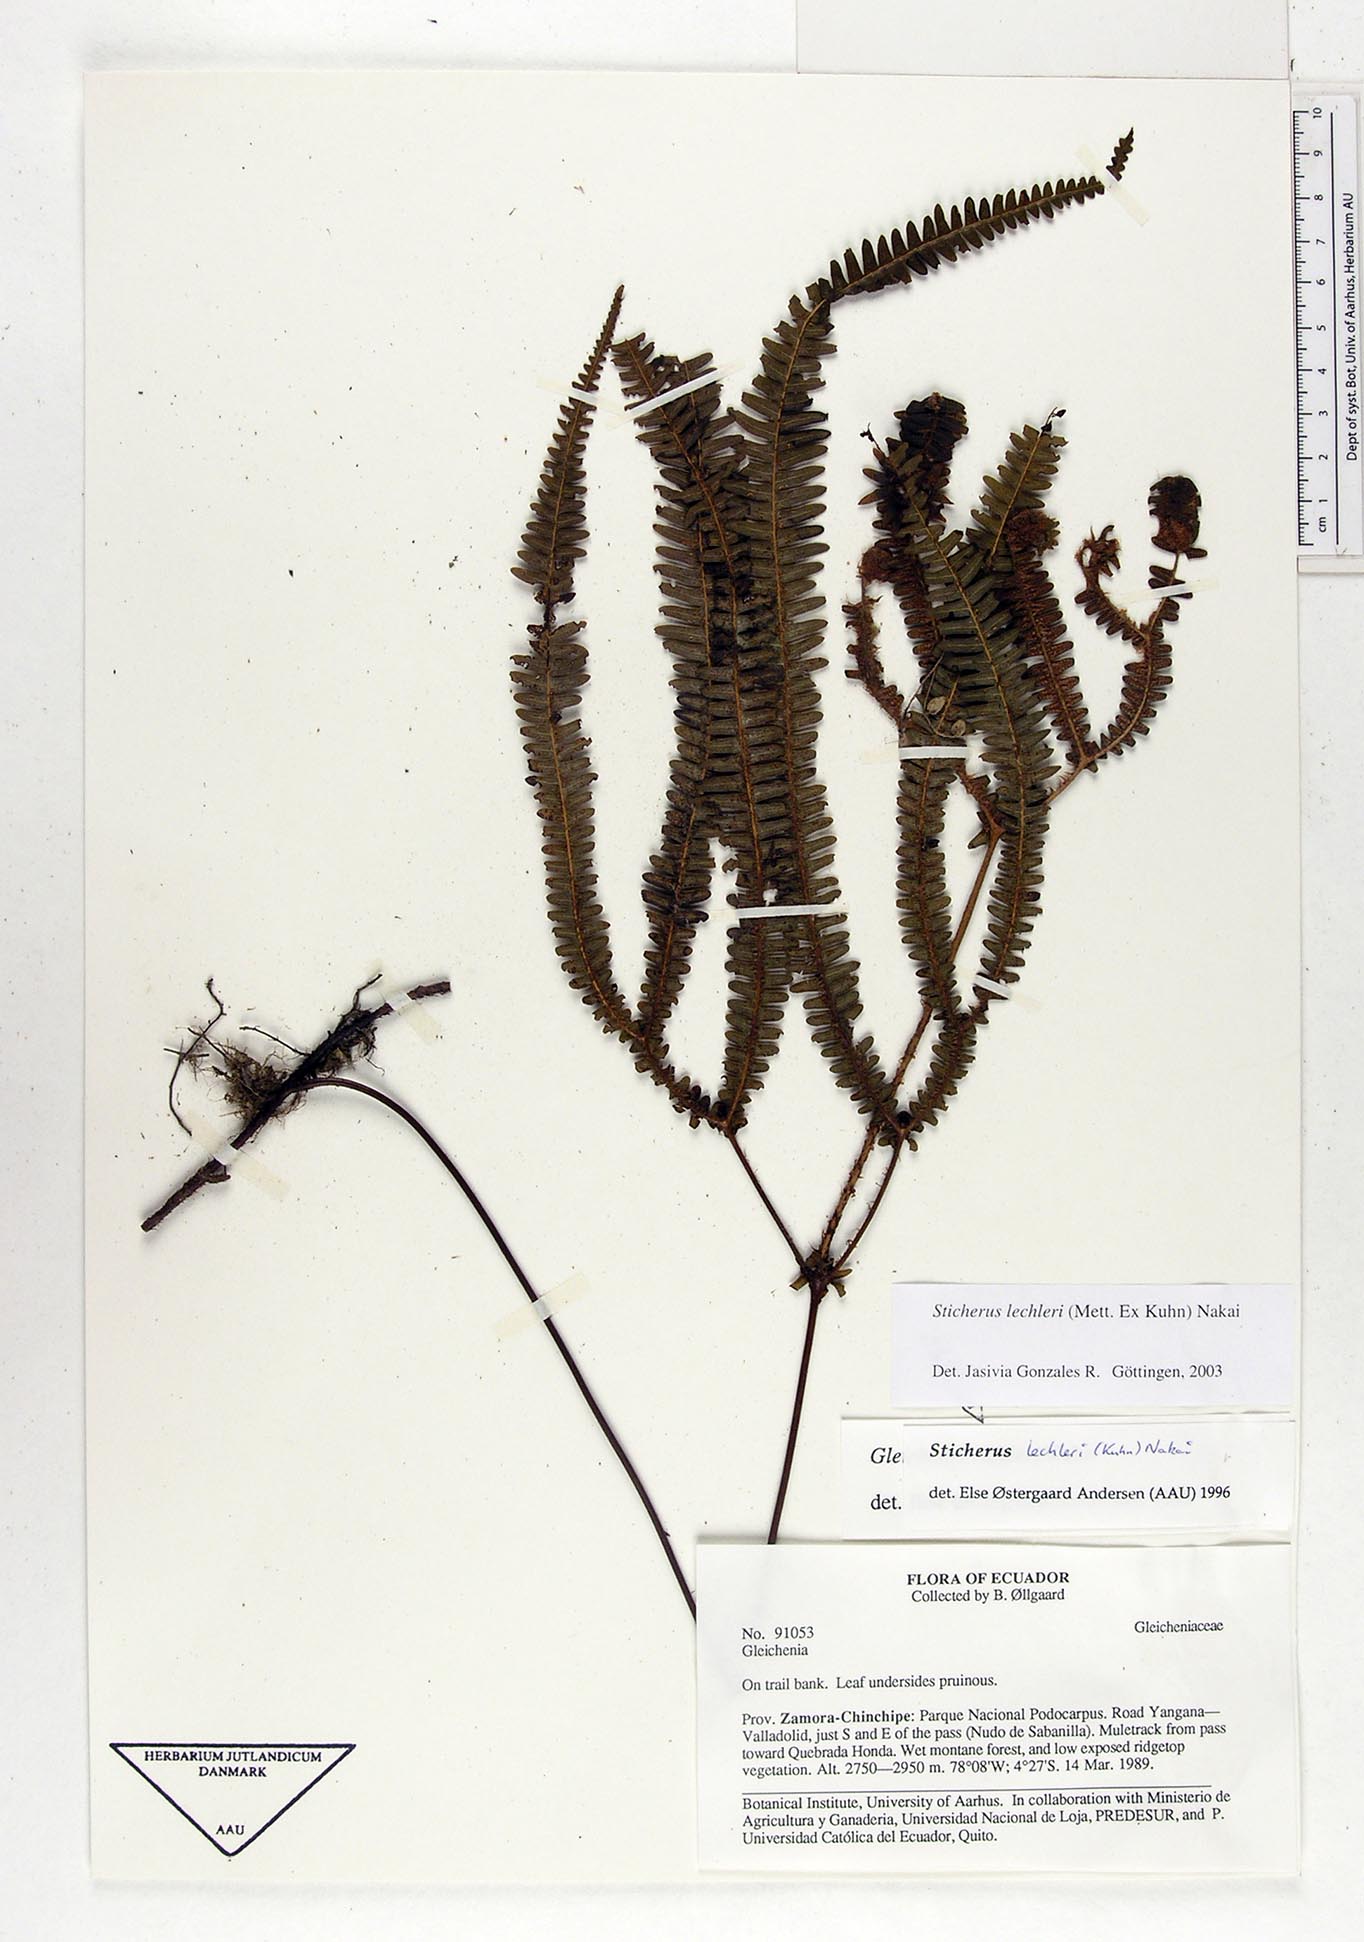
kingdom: Plantae
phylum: Tracheophyta
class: Polypodiopsida
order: Gleicheniales
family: Gleicheniaceae
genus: Sticherus
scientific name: Sticherus lechleri
